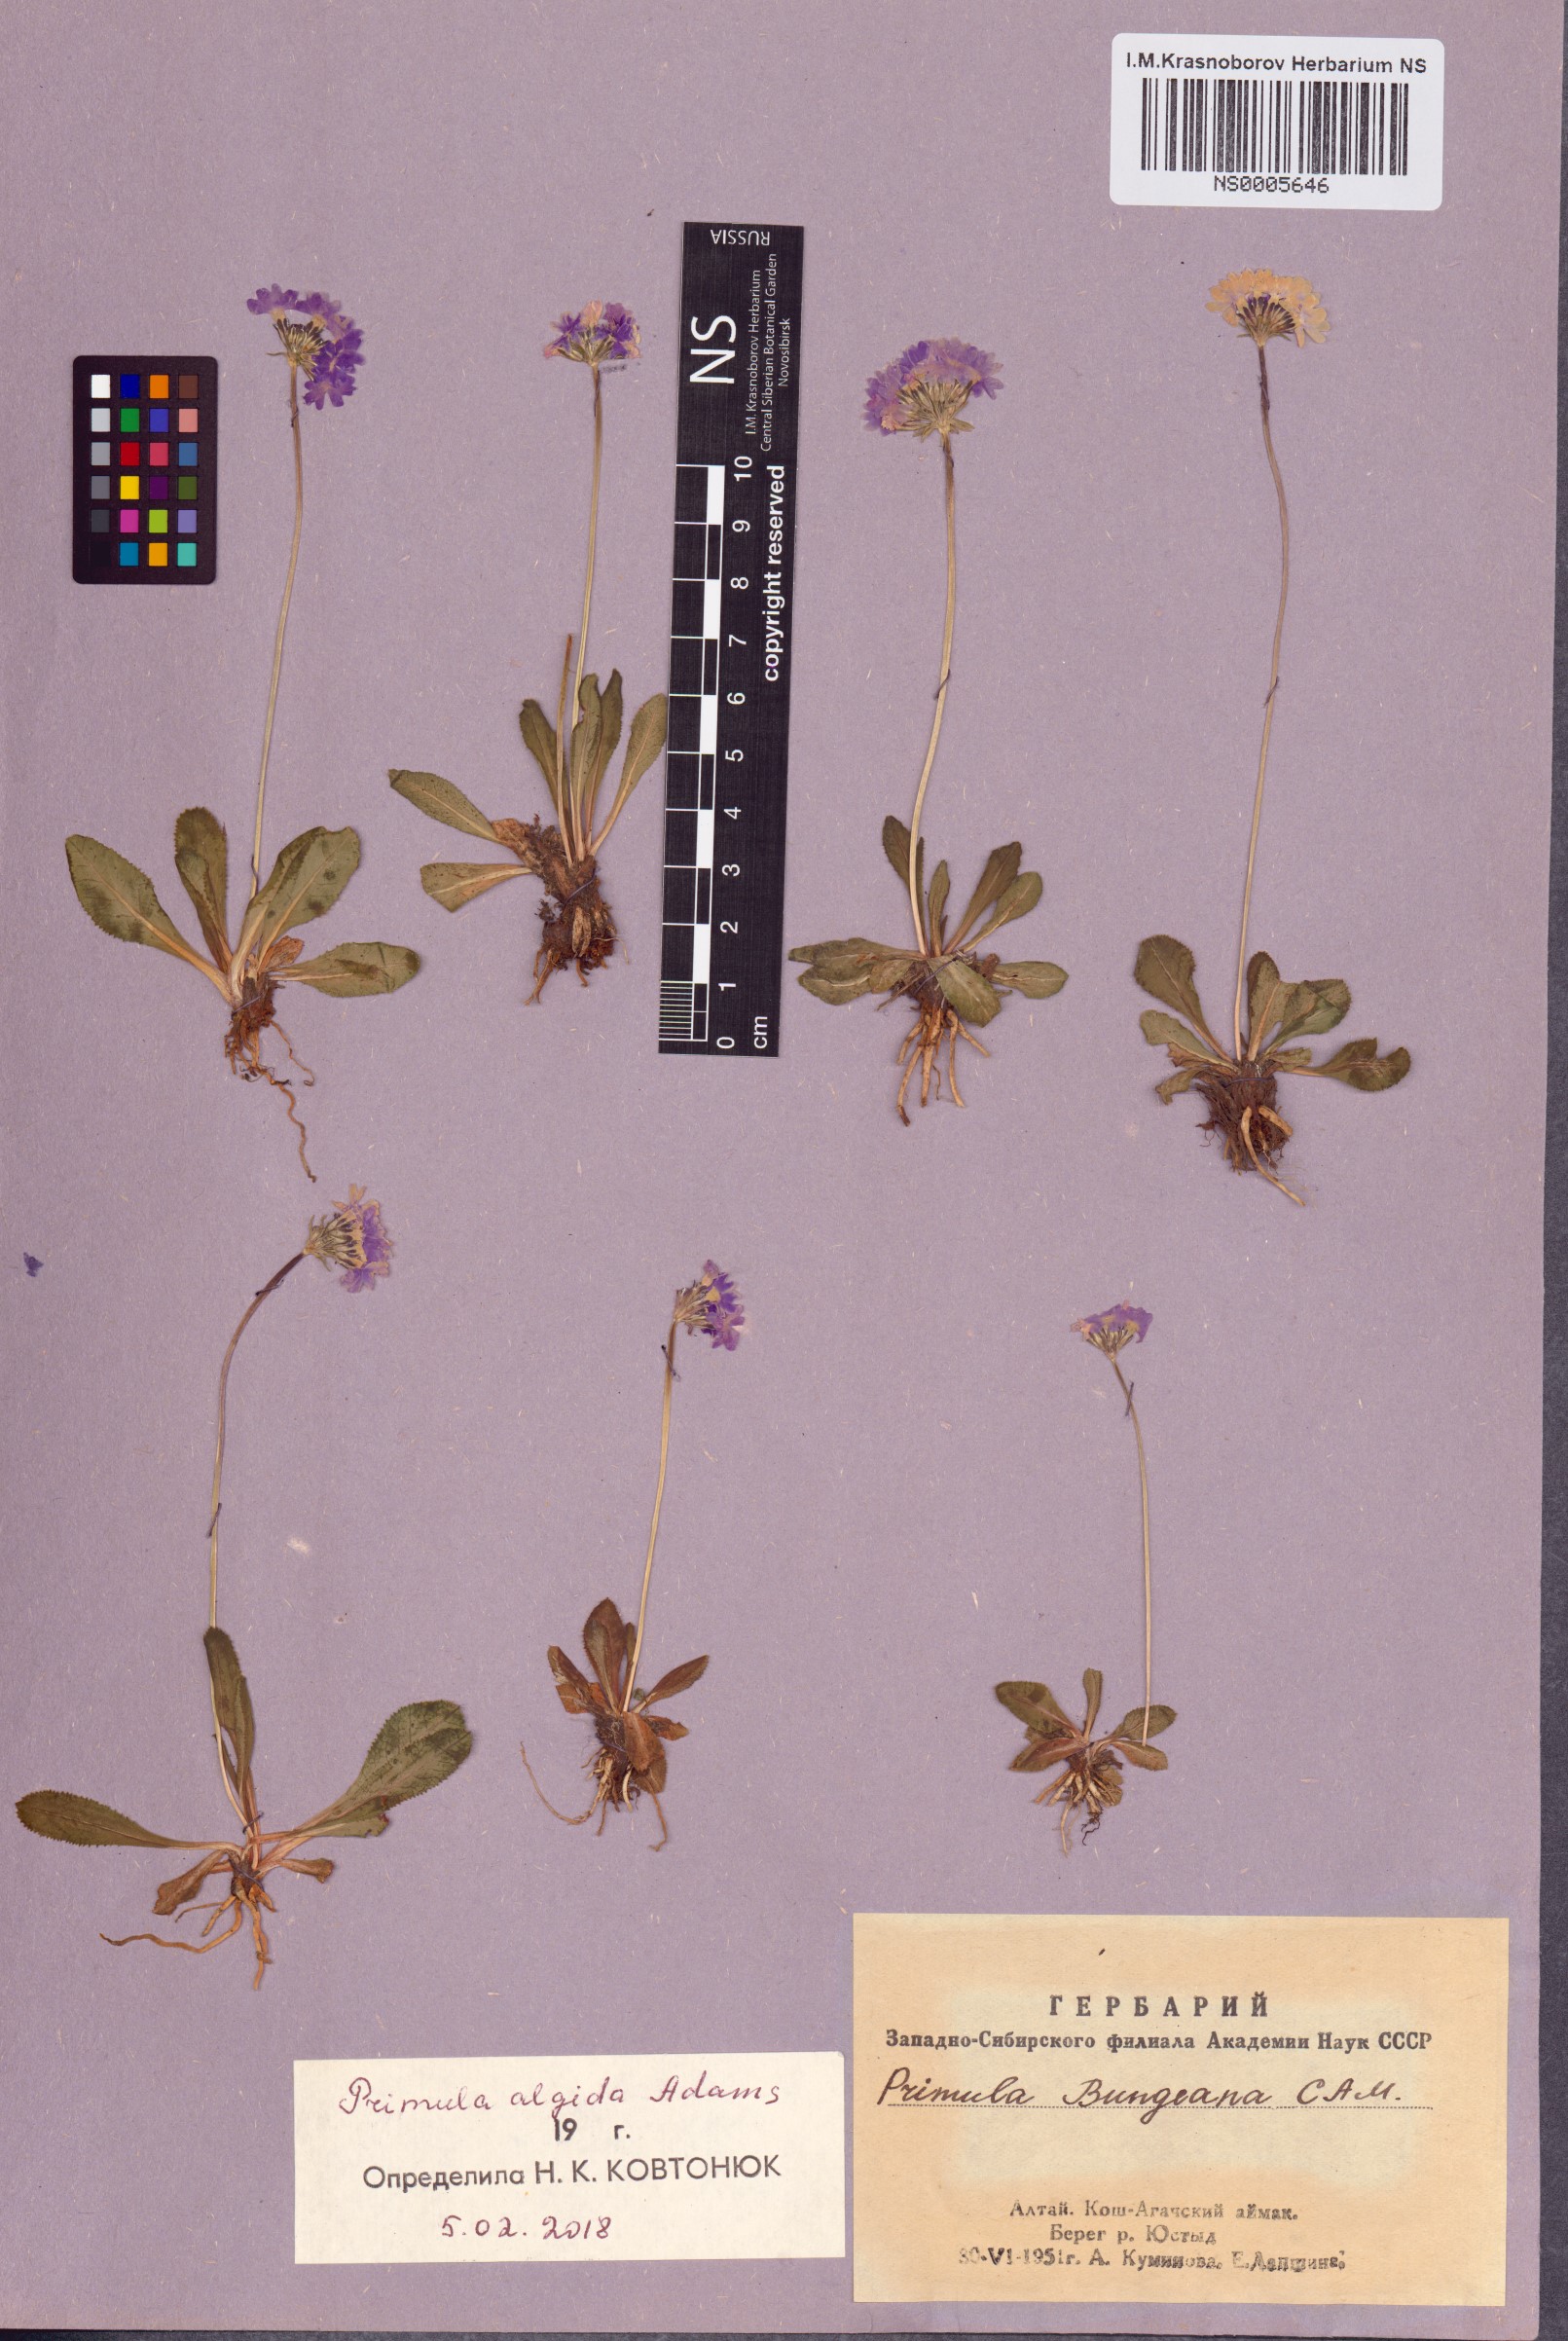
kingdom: Plantae
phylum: Tracheophyta
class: Magnoliopsida
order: Ericales
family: Primulaceae
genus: Primula
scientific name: Primula algida
